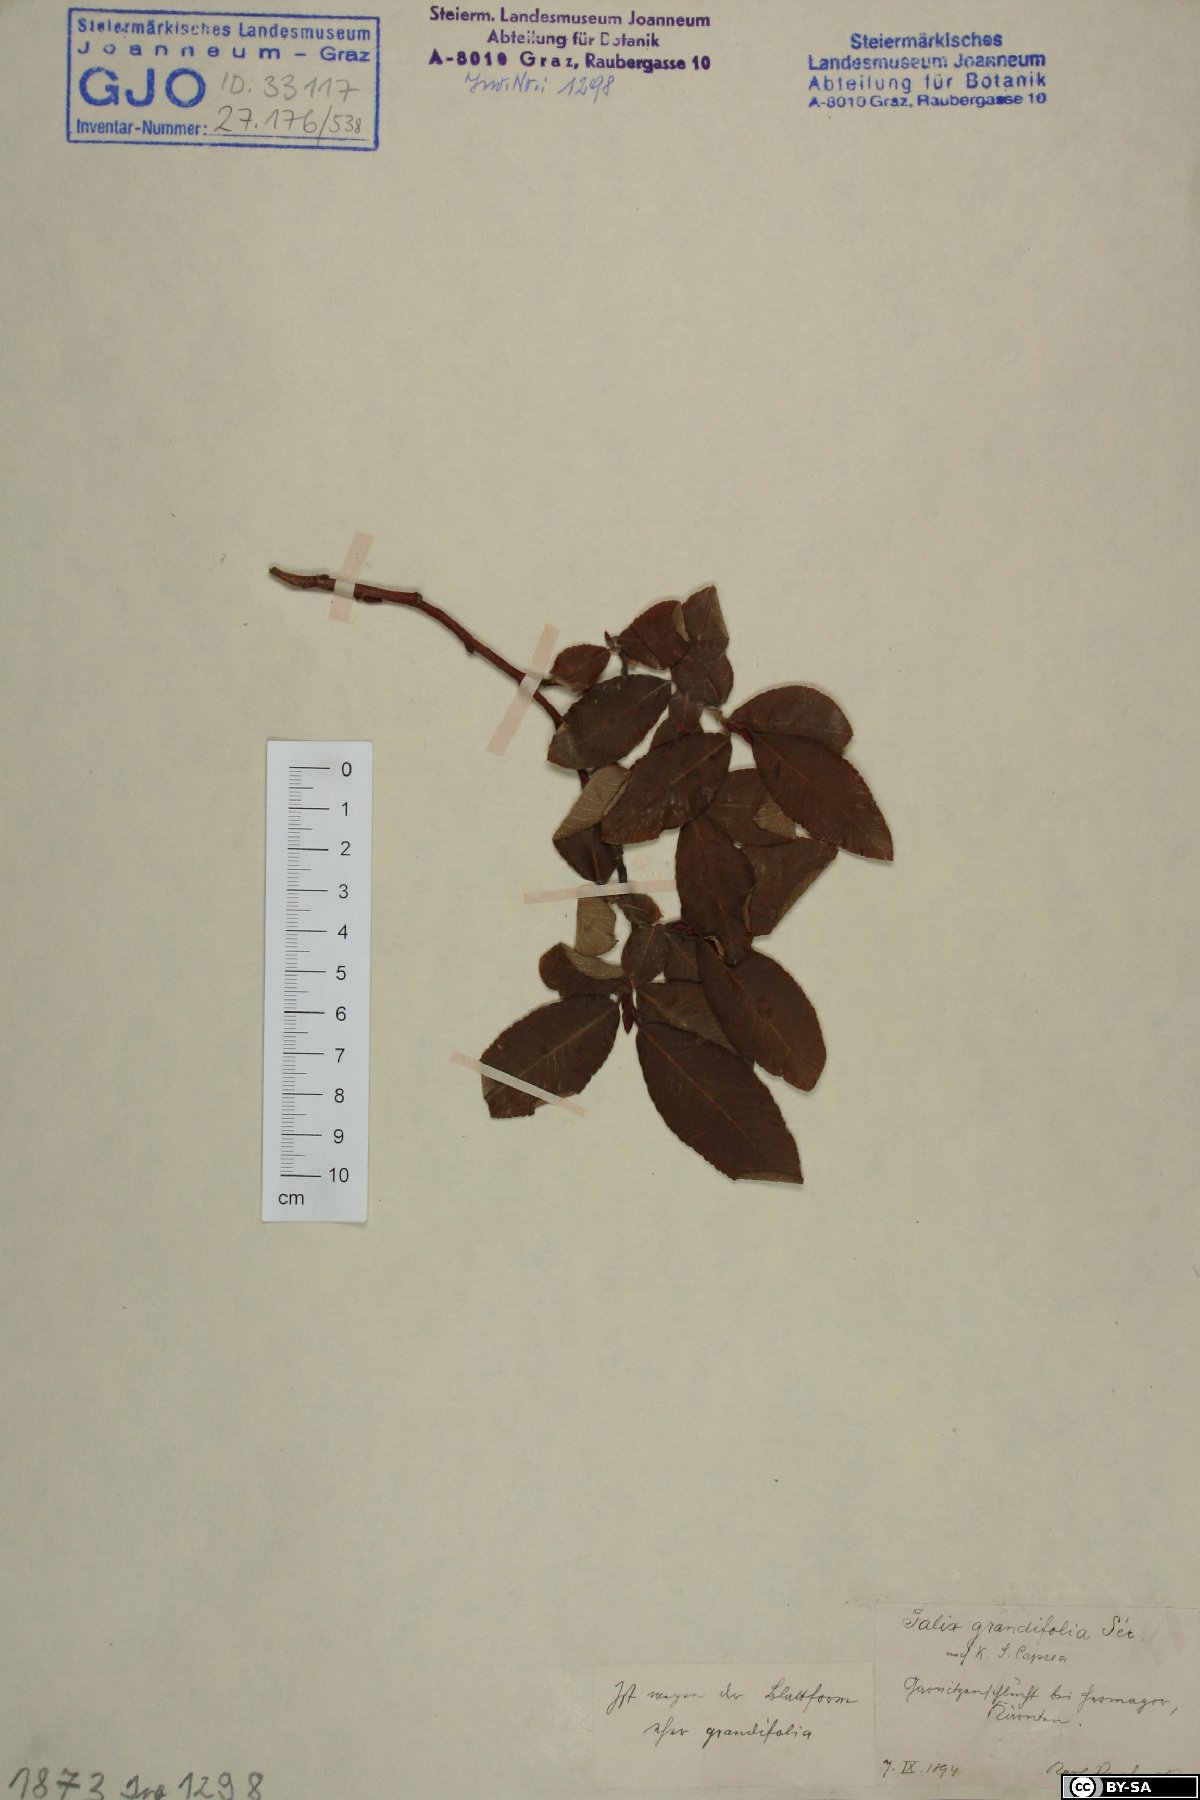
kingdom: Plantae
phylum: Tracheophyta
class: Magnoliopsida
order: Malpighiales
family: Salicaceae
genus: Salix
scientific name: Salix appendiculata
